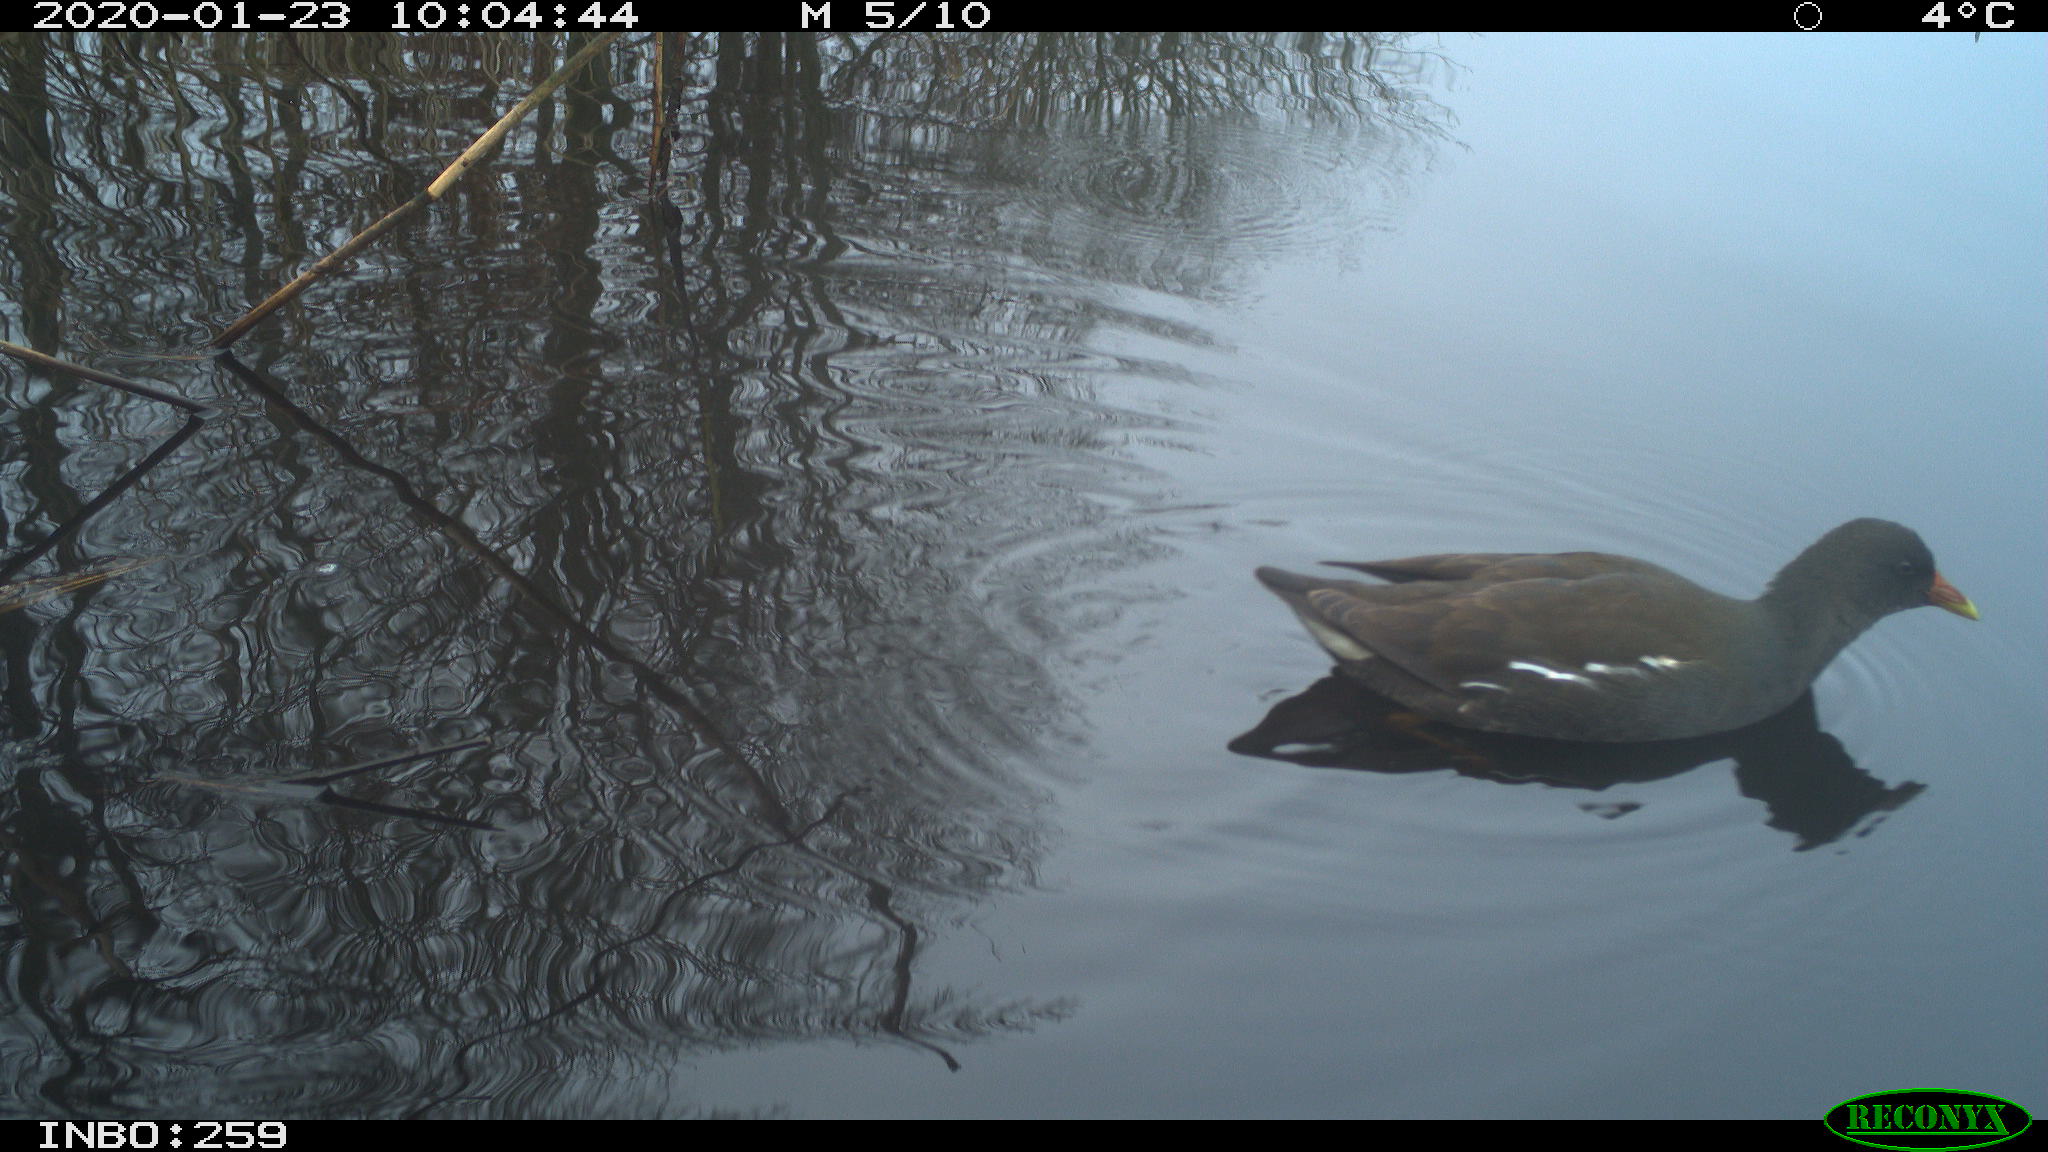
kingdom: Animalia
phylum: Chordata
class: Aves
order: Gruiformes
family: Rallidae
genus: Gallinula
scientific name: Gallinula chloropus
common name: Common moorhen
